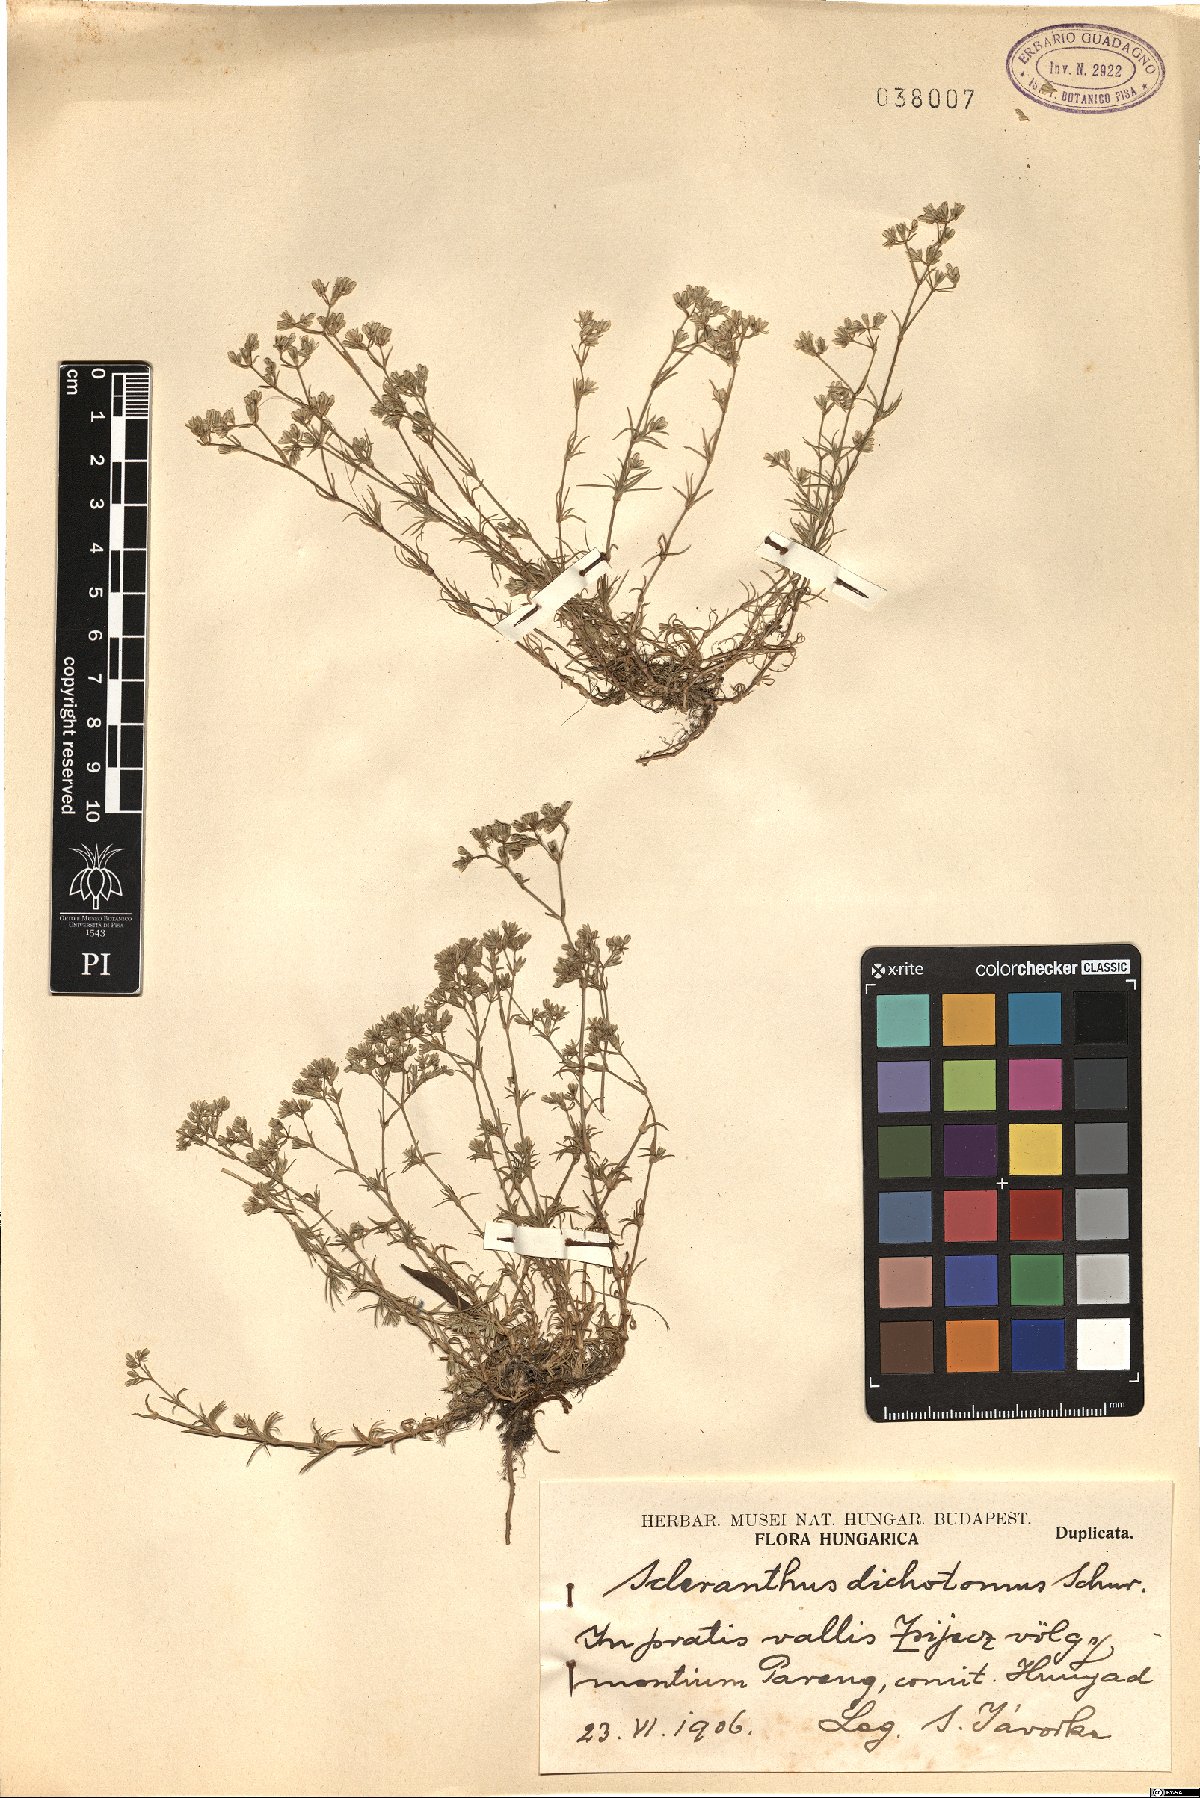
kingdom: Plantae
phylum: Tracheophyta
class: Magnoliopsida
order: Caryophyllales
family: Caryophyllaceae
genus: Scleranthus
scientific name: Scleranthus perennis
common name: Perennial knawel
